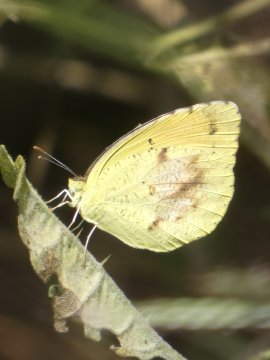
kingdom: Animalia
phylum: Arthropoda
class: Insecta
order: Lepidoptera
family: Pieridae
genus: Abaeis
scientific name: Abaeis
